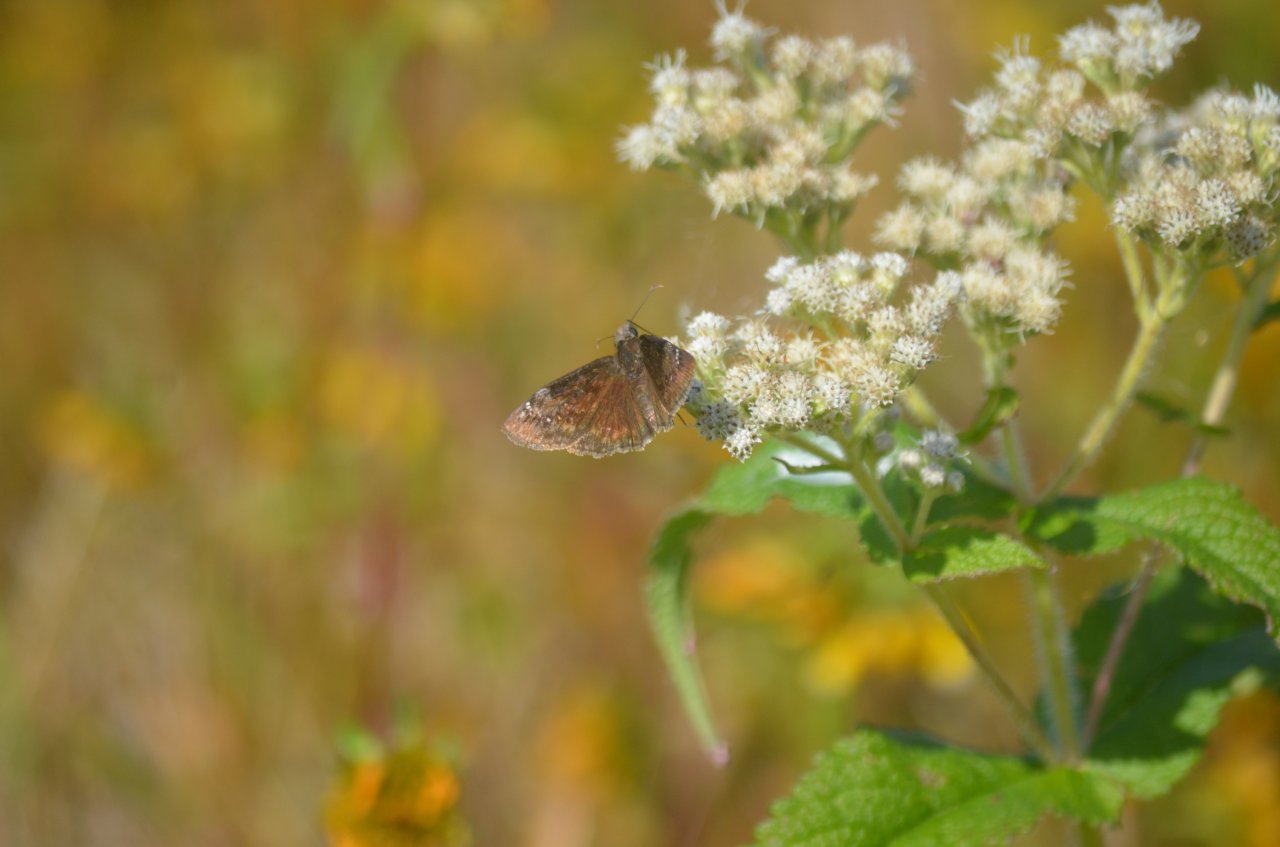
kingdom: Animalia
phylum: Arthropoda
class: Insecta
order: Lepidoptera
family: Hesperiidae
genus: Gesta
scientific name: Gesta
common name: Wild Indigo Duskywing
